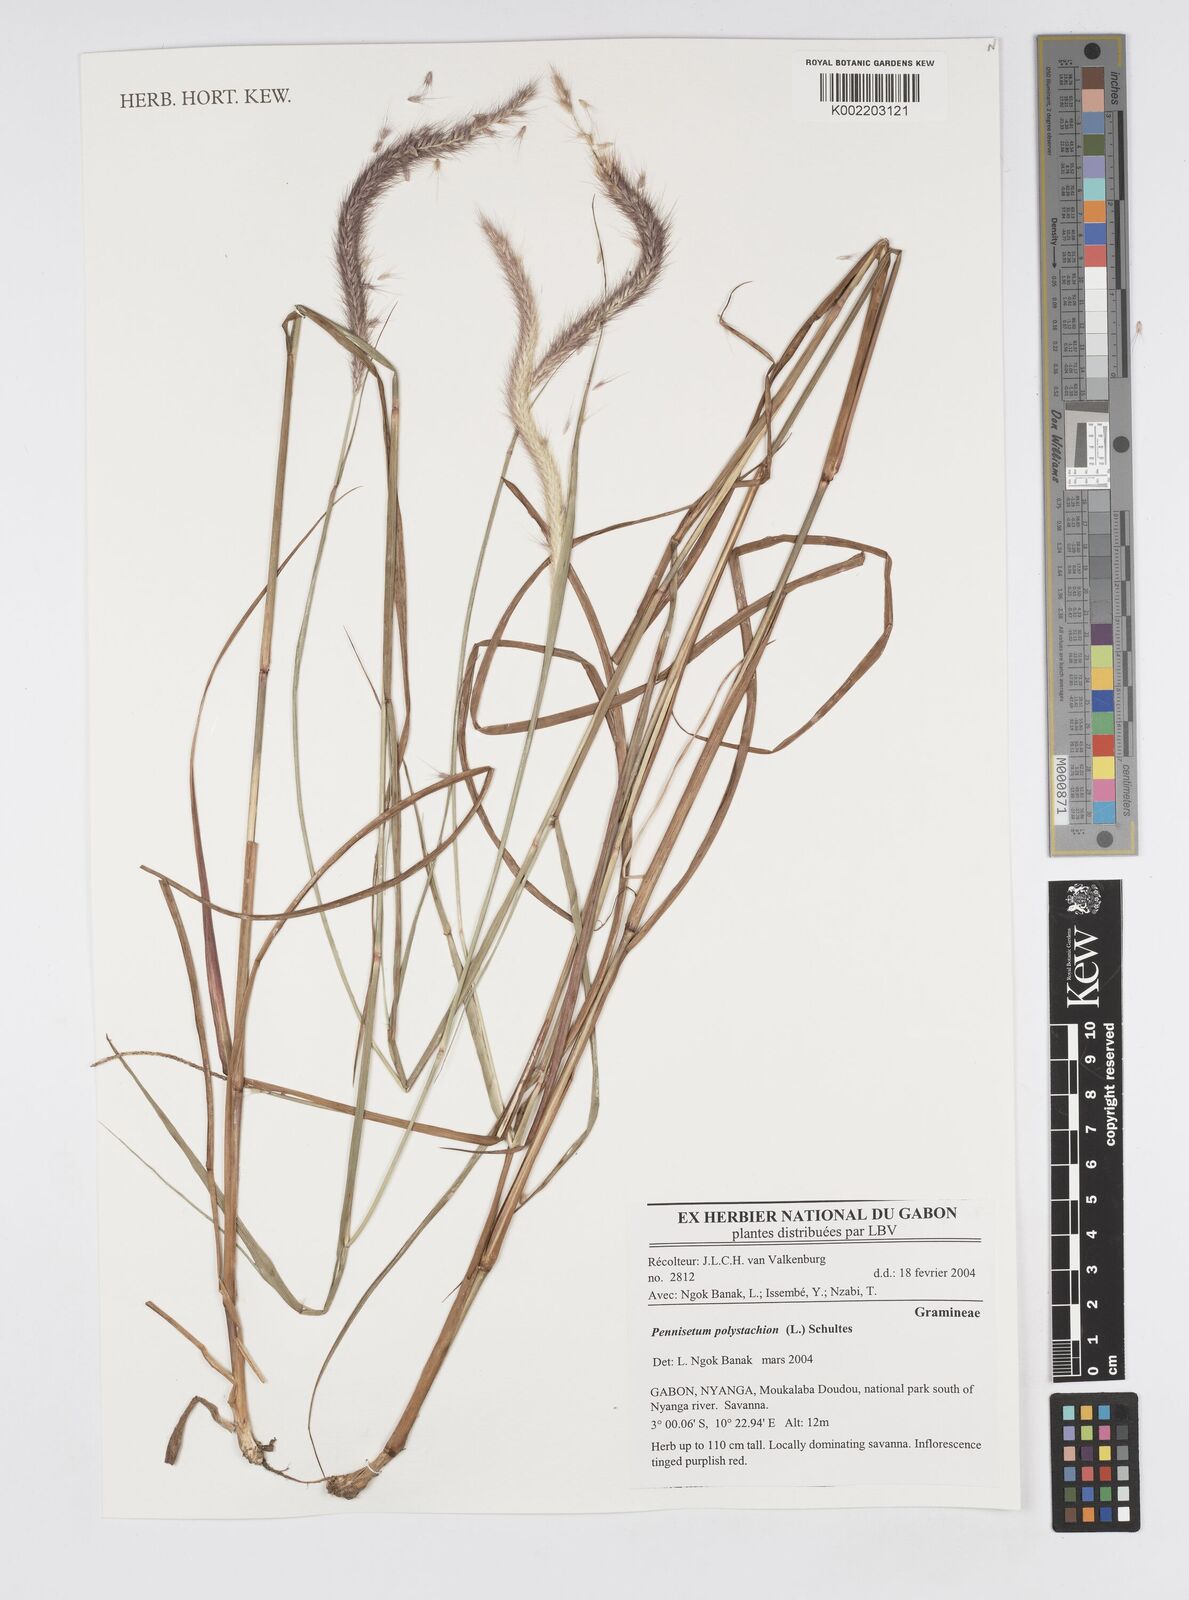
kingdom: Plantae
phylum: Tracheophyta
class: Liliopsida
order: Poales
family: Poaceae
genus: Setaria
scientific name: Setaria parviflora
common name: Knotroot bristle-grass
